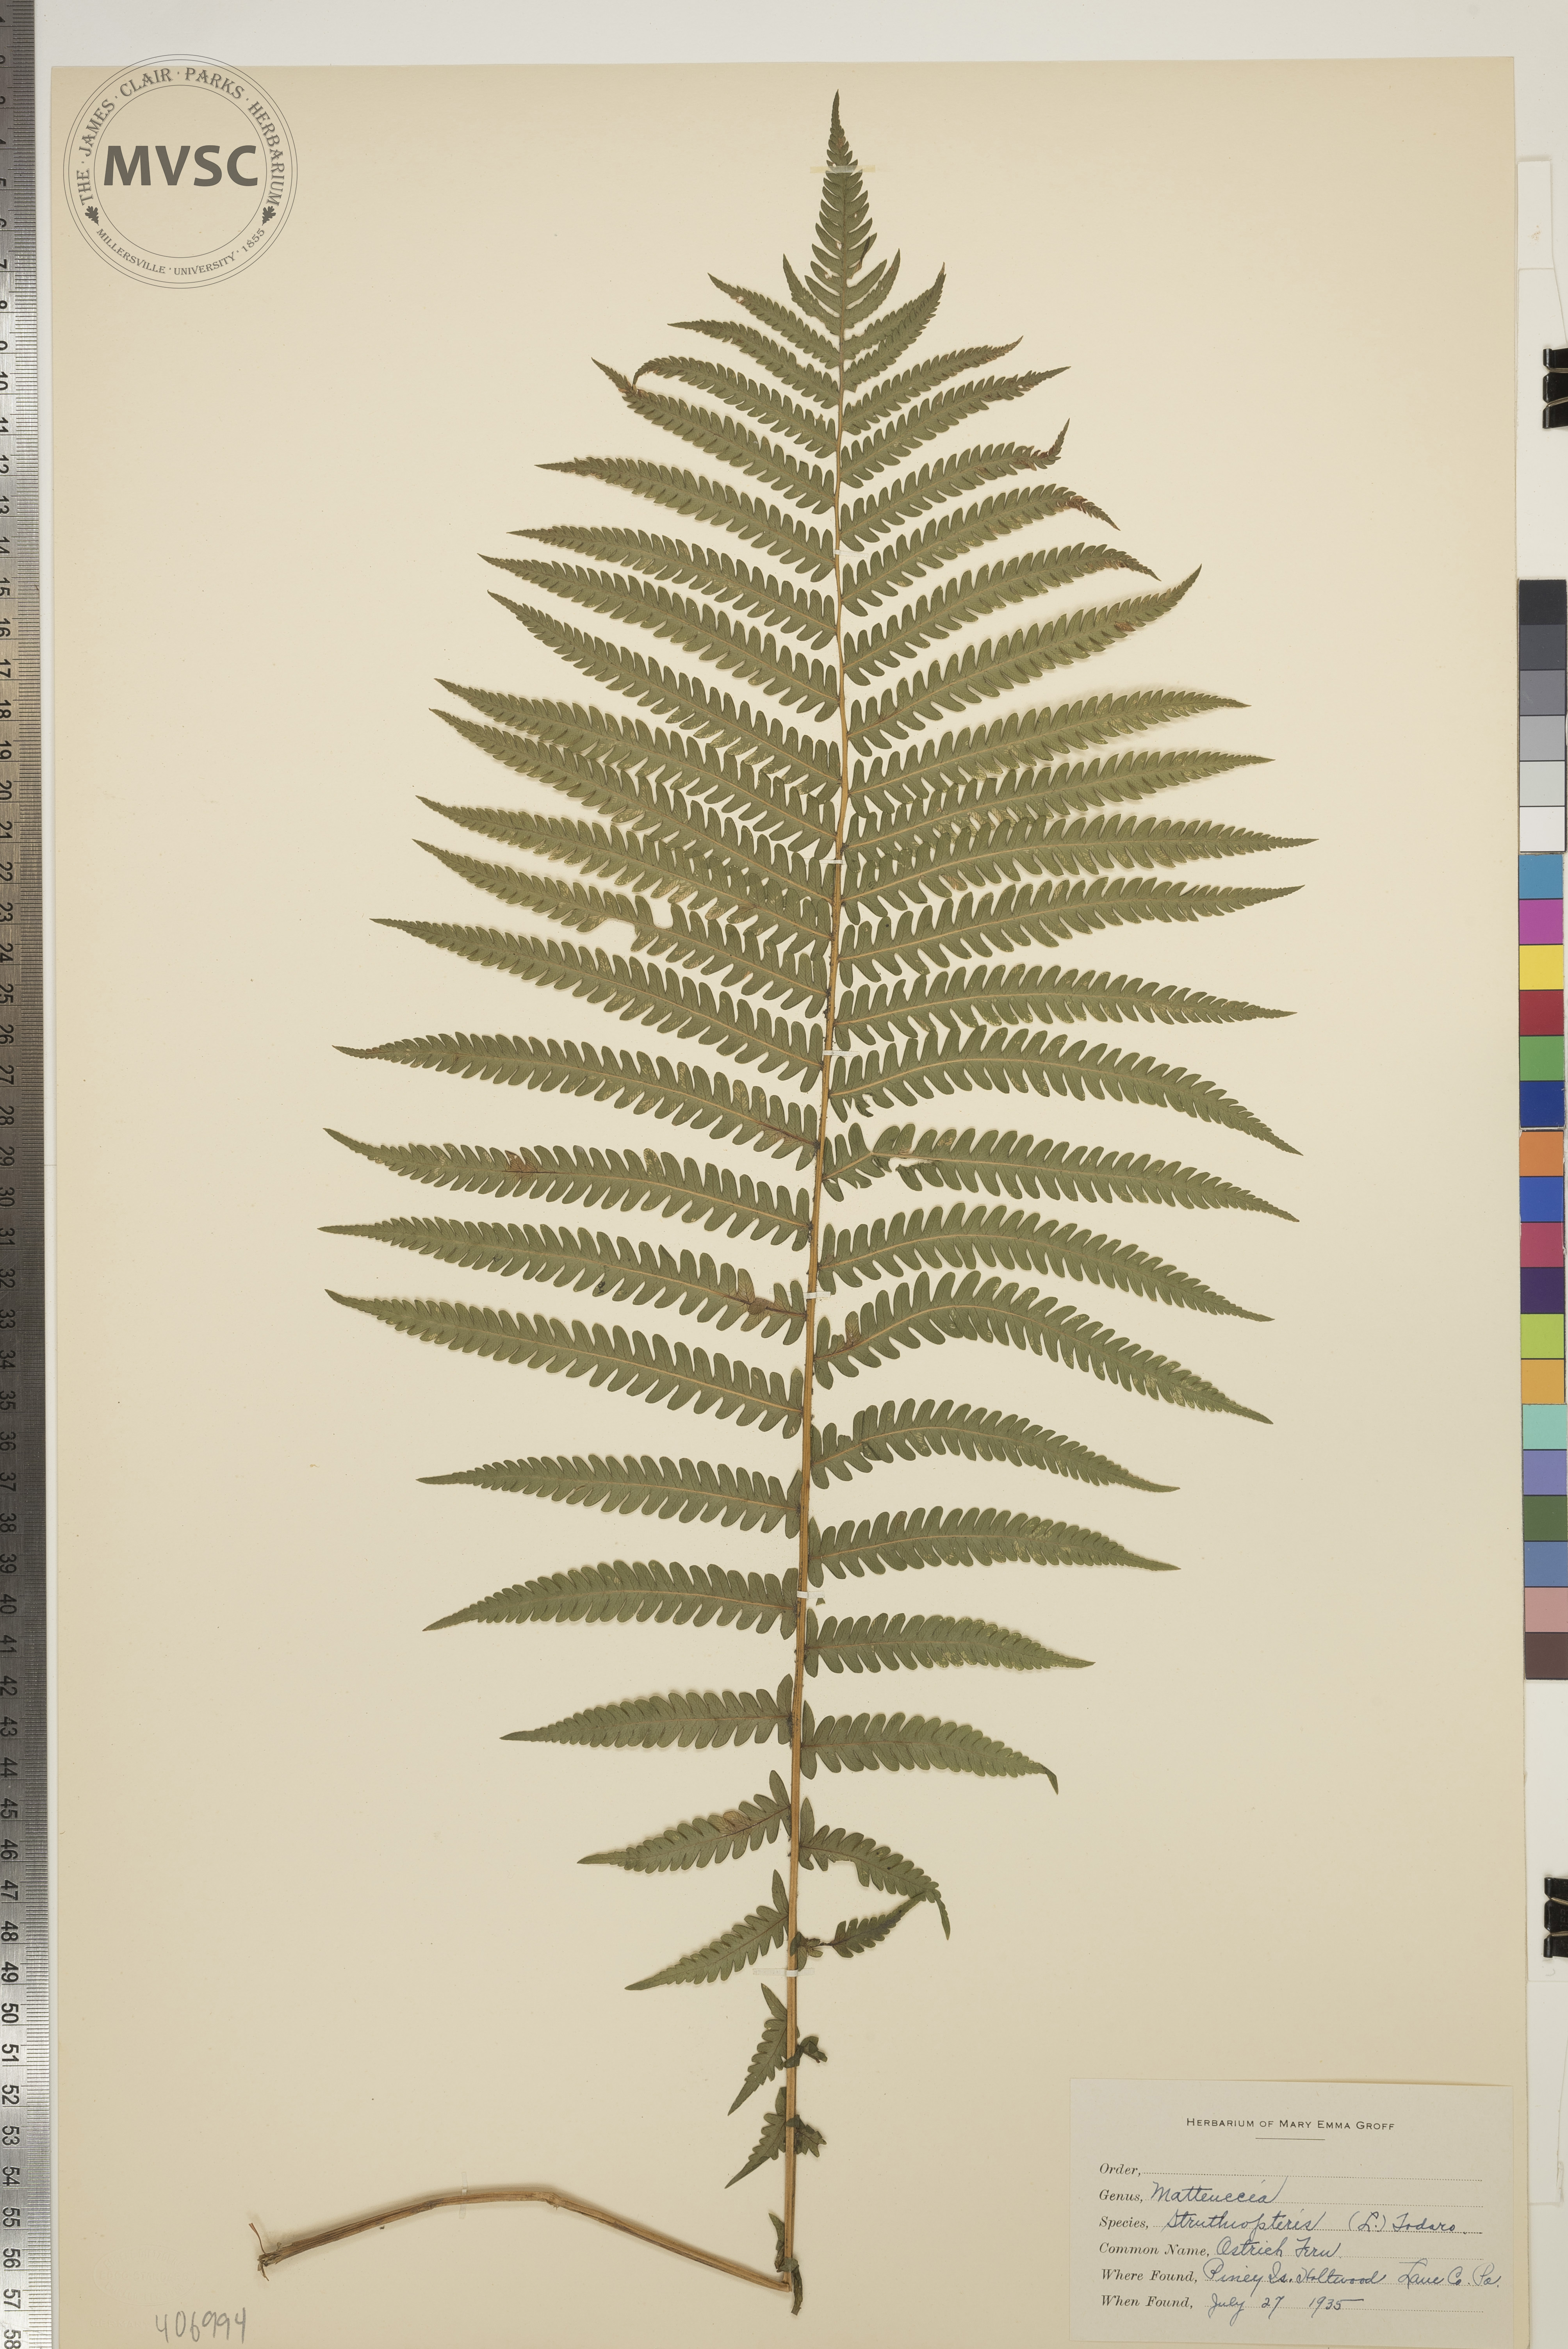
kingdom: Plantae
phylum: Tracheophyta
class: Polypodiopsida
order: Polypodiales
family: Onocleaceae
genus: Matteuccia
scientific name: Matteuccia struthiopteris
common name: Ostrich Fern
